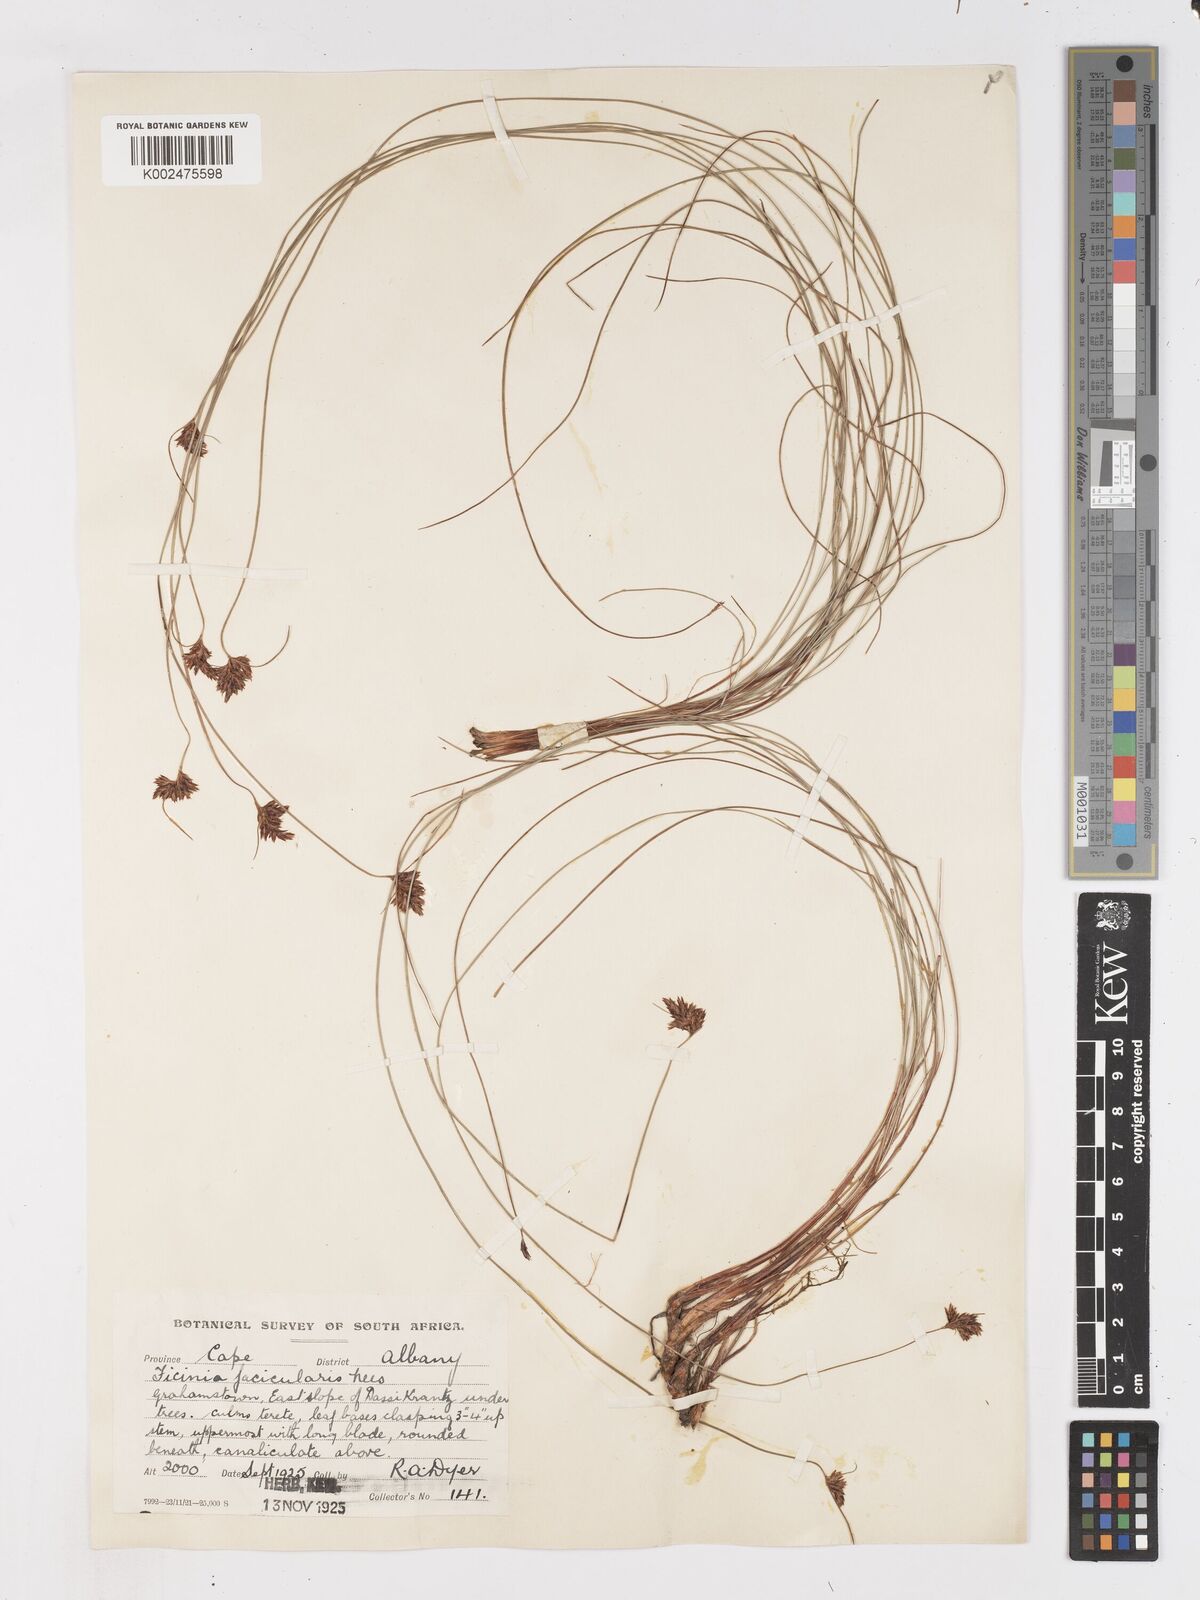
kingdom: Plantae
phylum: Tracheophyta
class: Liliopsida
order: Poales
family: Cyperaceae
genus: Ficinia
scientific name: Ficinia fascicularis
